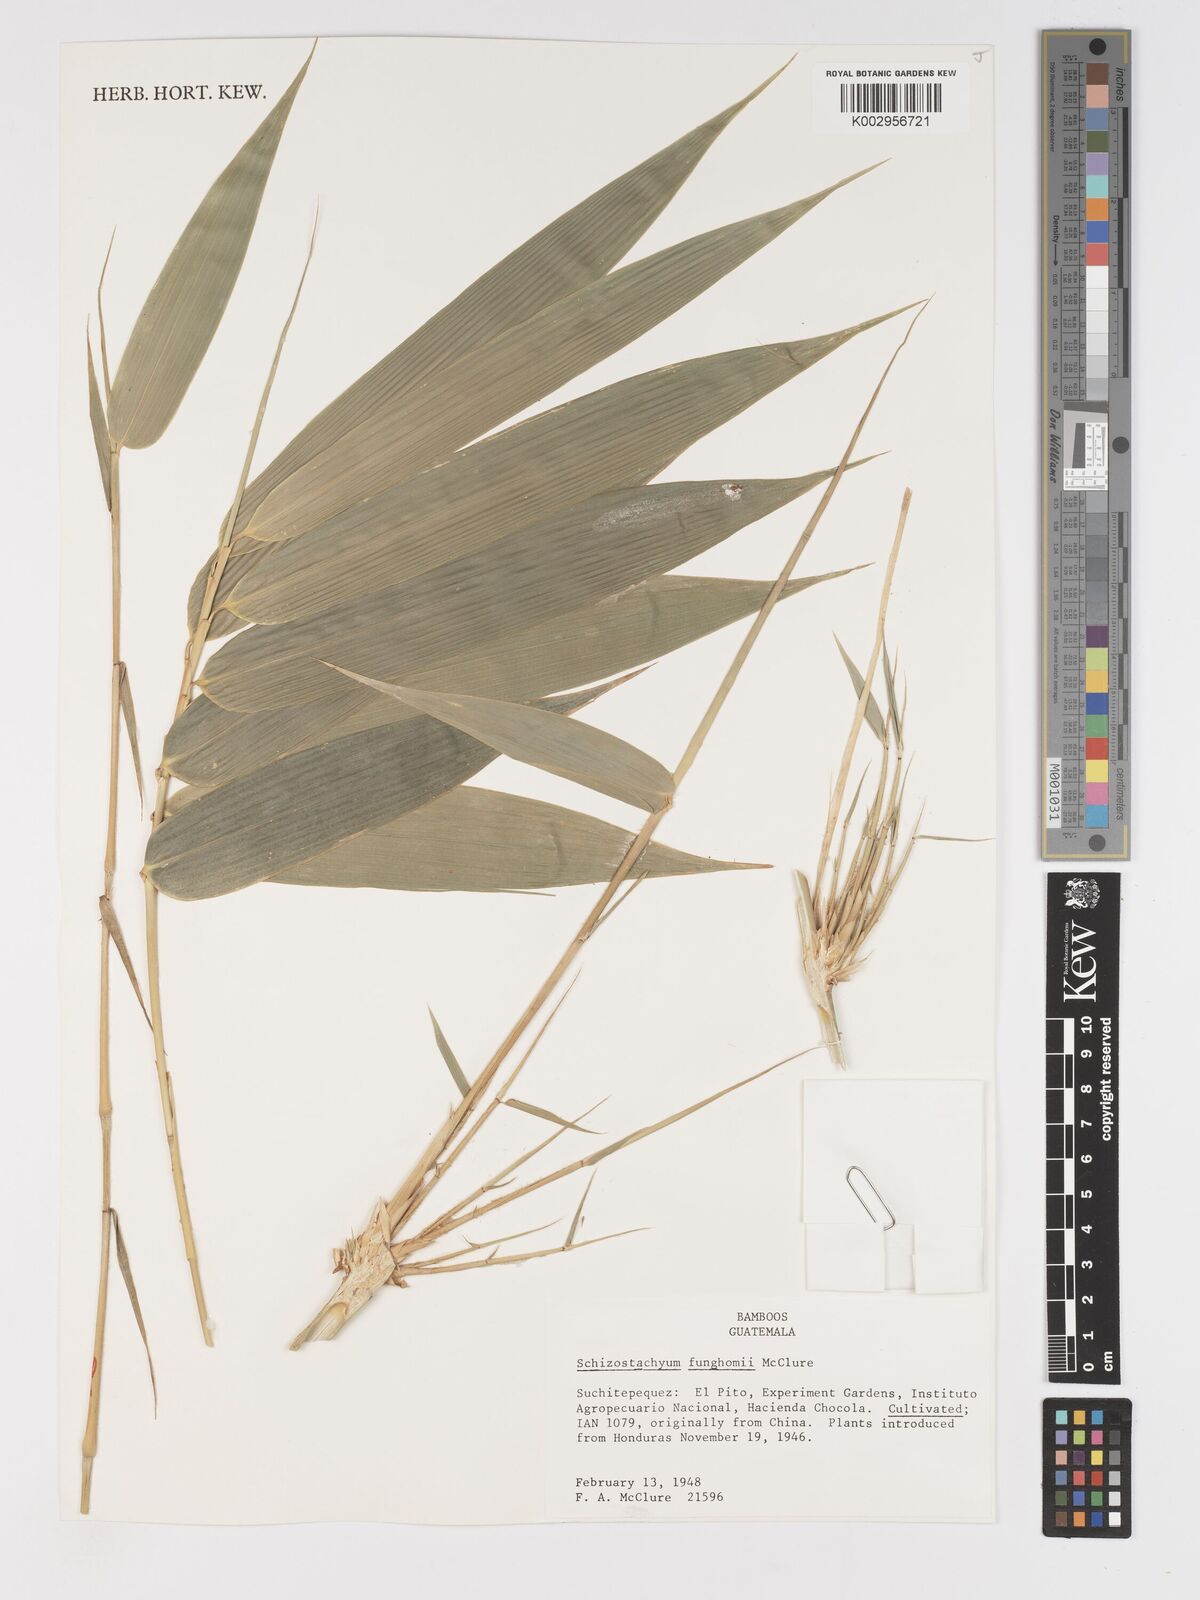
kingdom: Plantae
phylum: Tracheophyta
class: Liliopsida
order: Poales
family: Poaceae
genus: Schizostachyum
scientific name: Schizostachyum funghomii
